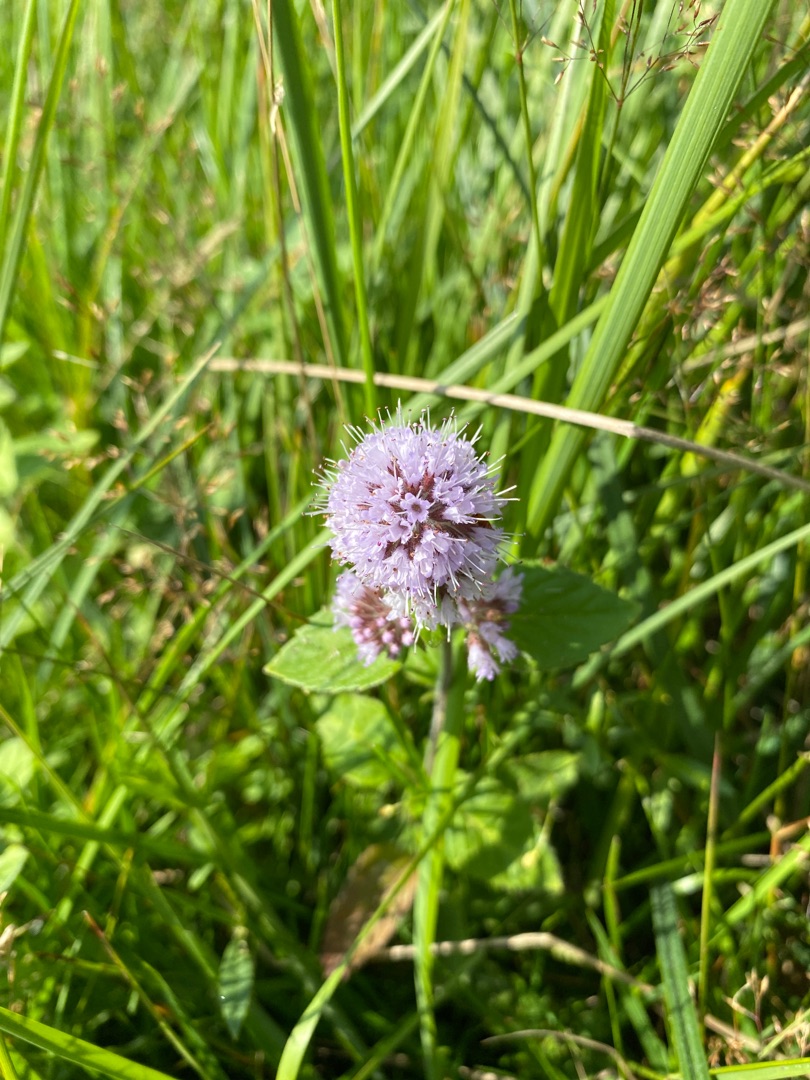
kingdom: Plantae
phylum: Tracheophyta
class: Magnoliopsida
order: Lamiales
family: Lamiaceae
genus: Mentha
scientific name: Mentha aquatica
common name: Vand-mynte
